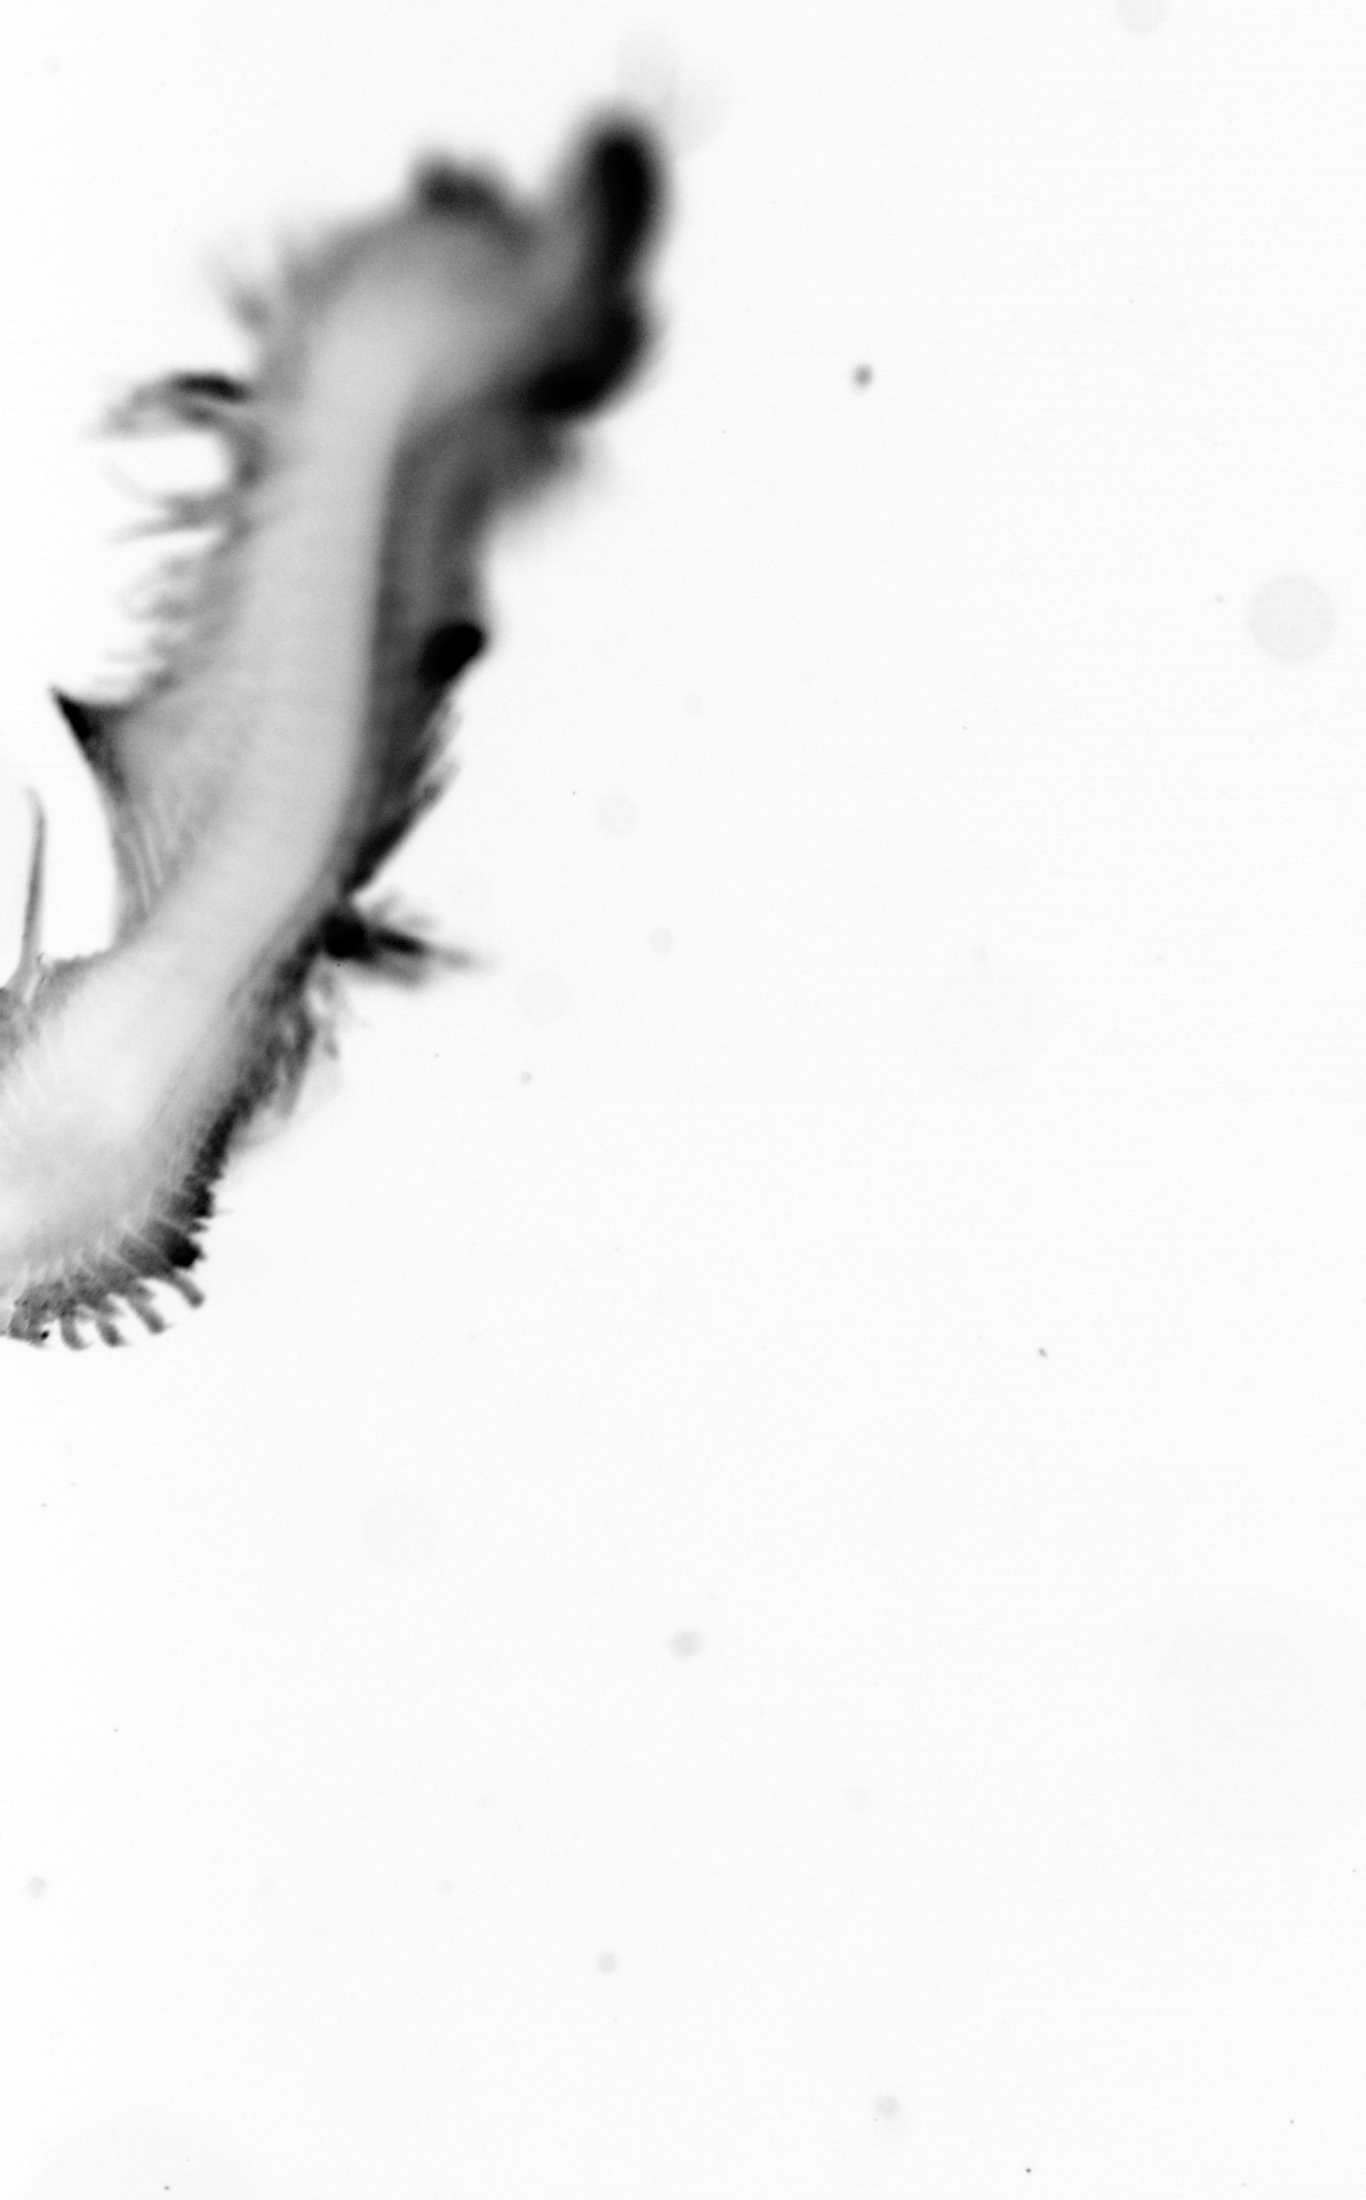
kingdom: Animalia
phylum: Annelida
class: Polychaeta
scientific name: Polychaeta
